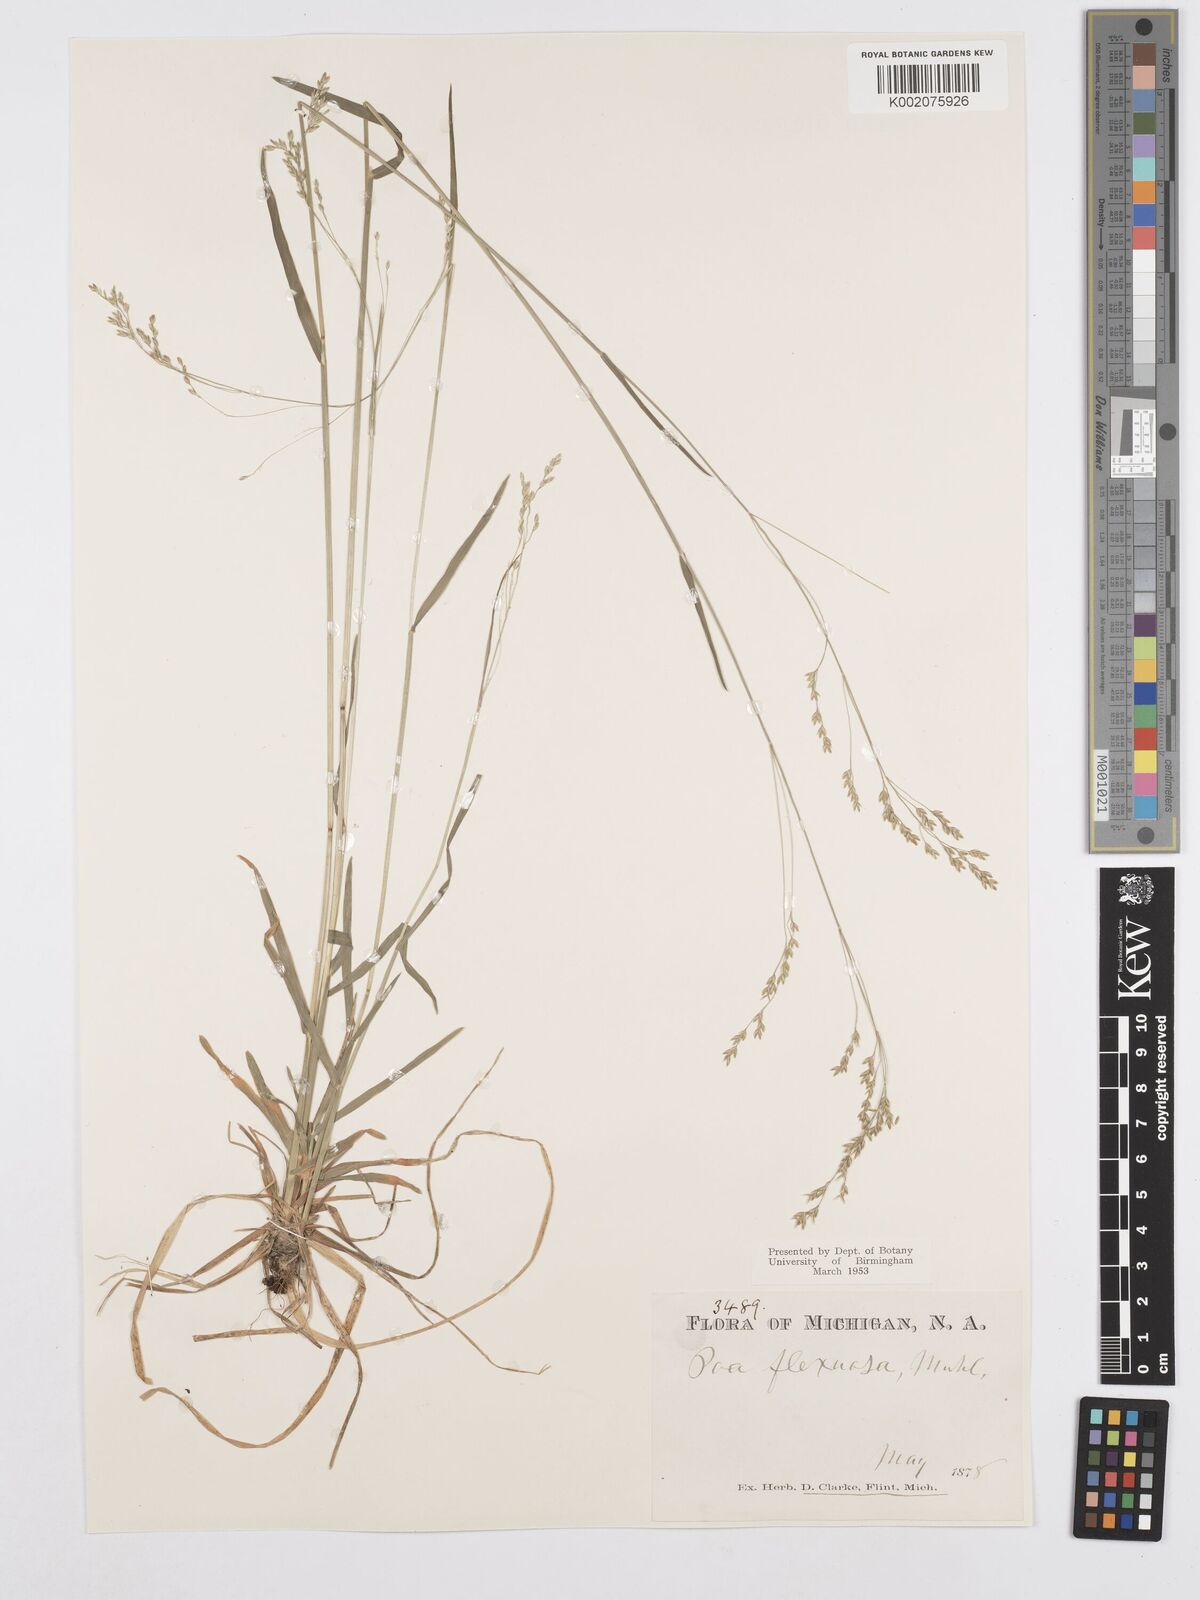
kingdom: Plantae
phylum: Tracheophyta
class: Liliopsida
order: Poales
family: Poaceae
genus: Poa
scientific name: Poa autumnalis
